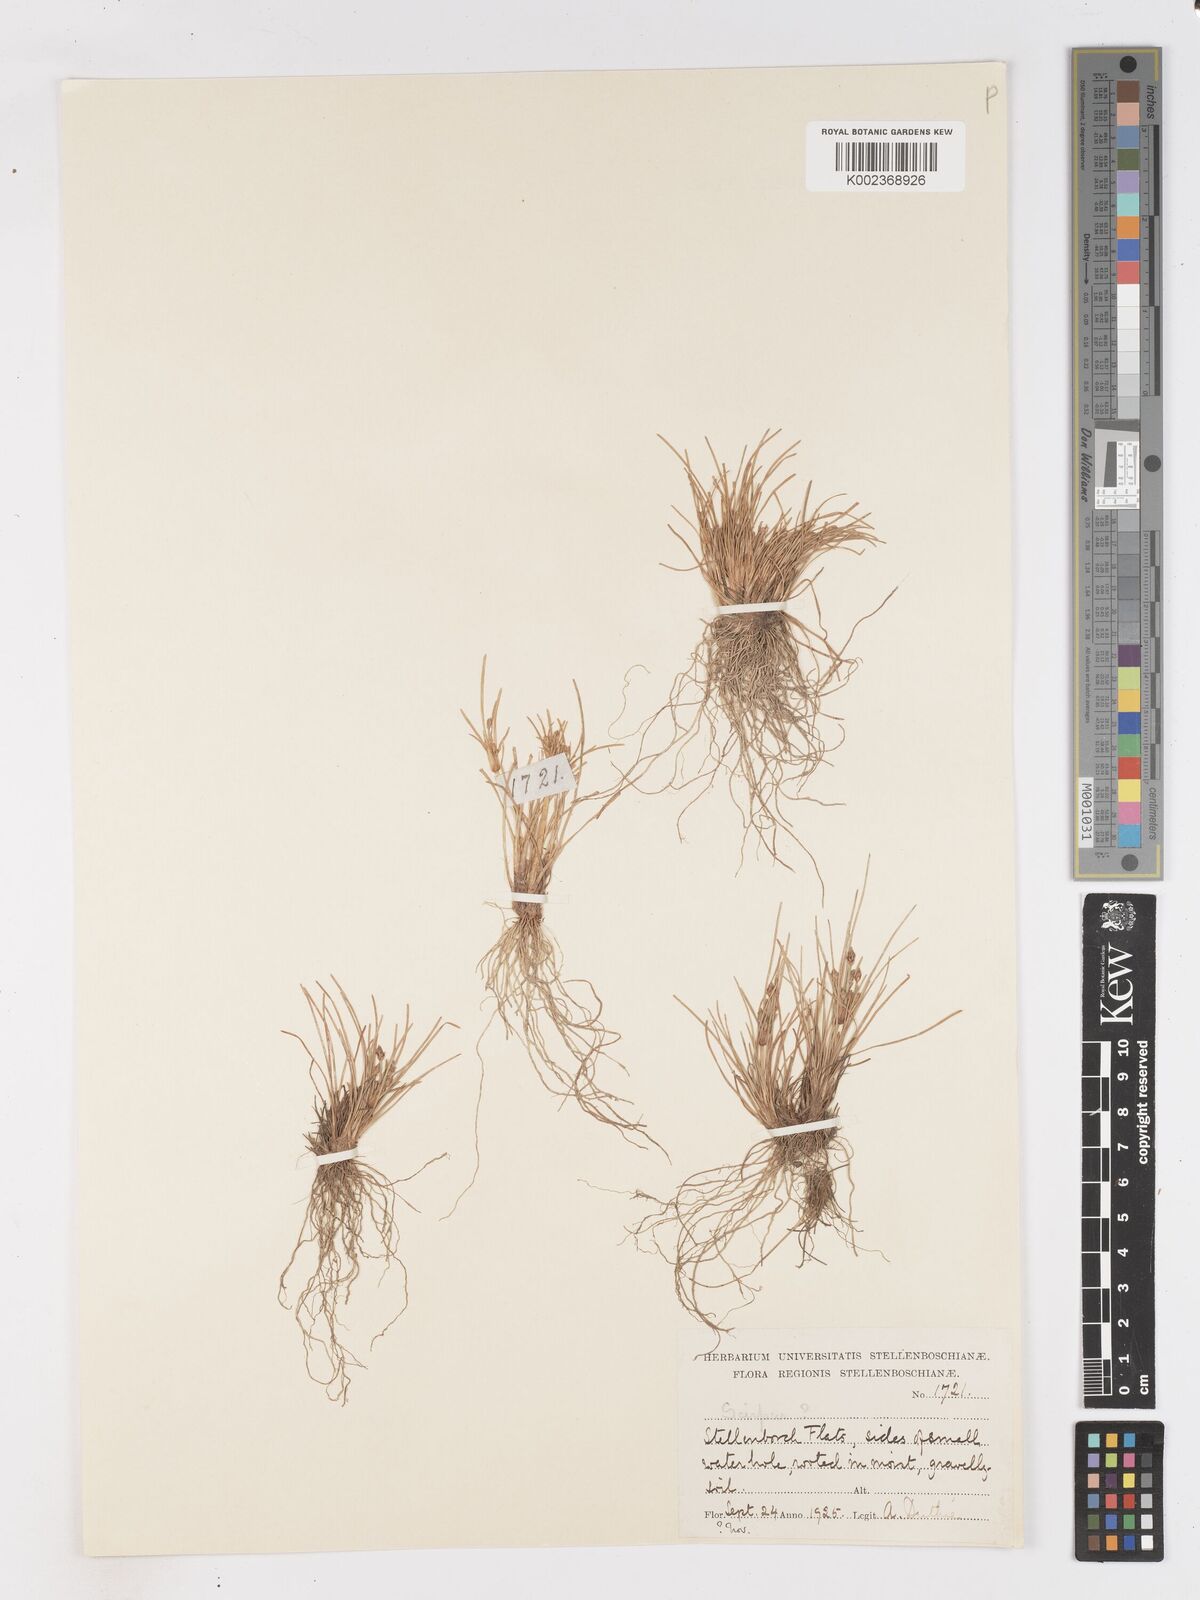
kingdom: Plantae
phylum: Tracheophyta
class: Liliopsida
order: Poales
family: Cyperaceae
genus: Isolepis
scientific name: Isolepis ludwigii
